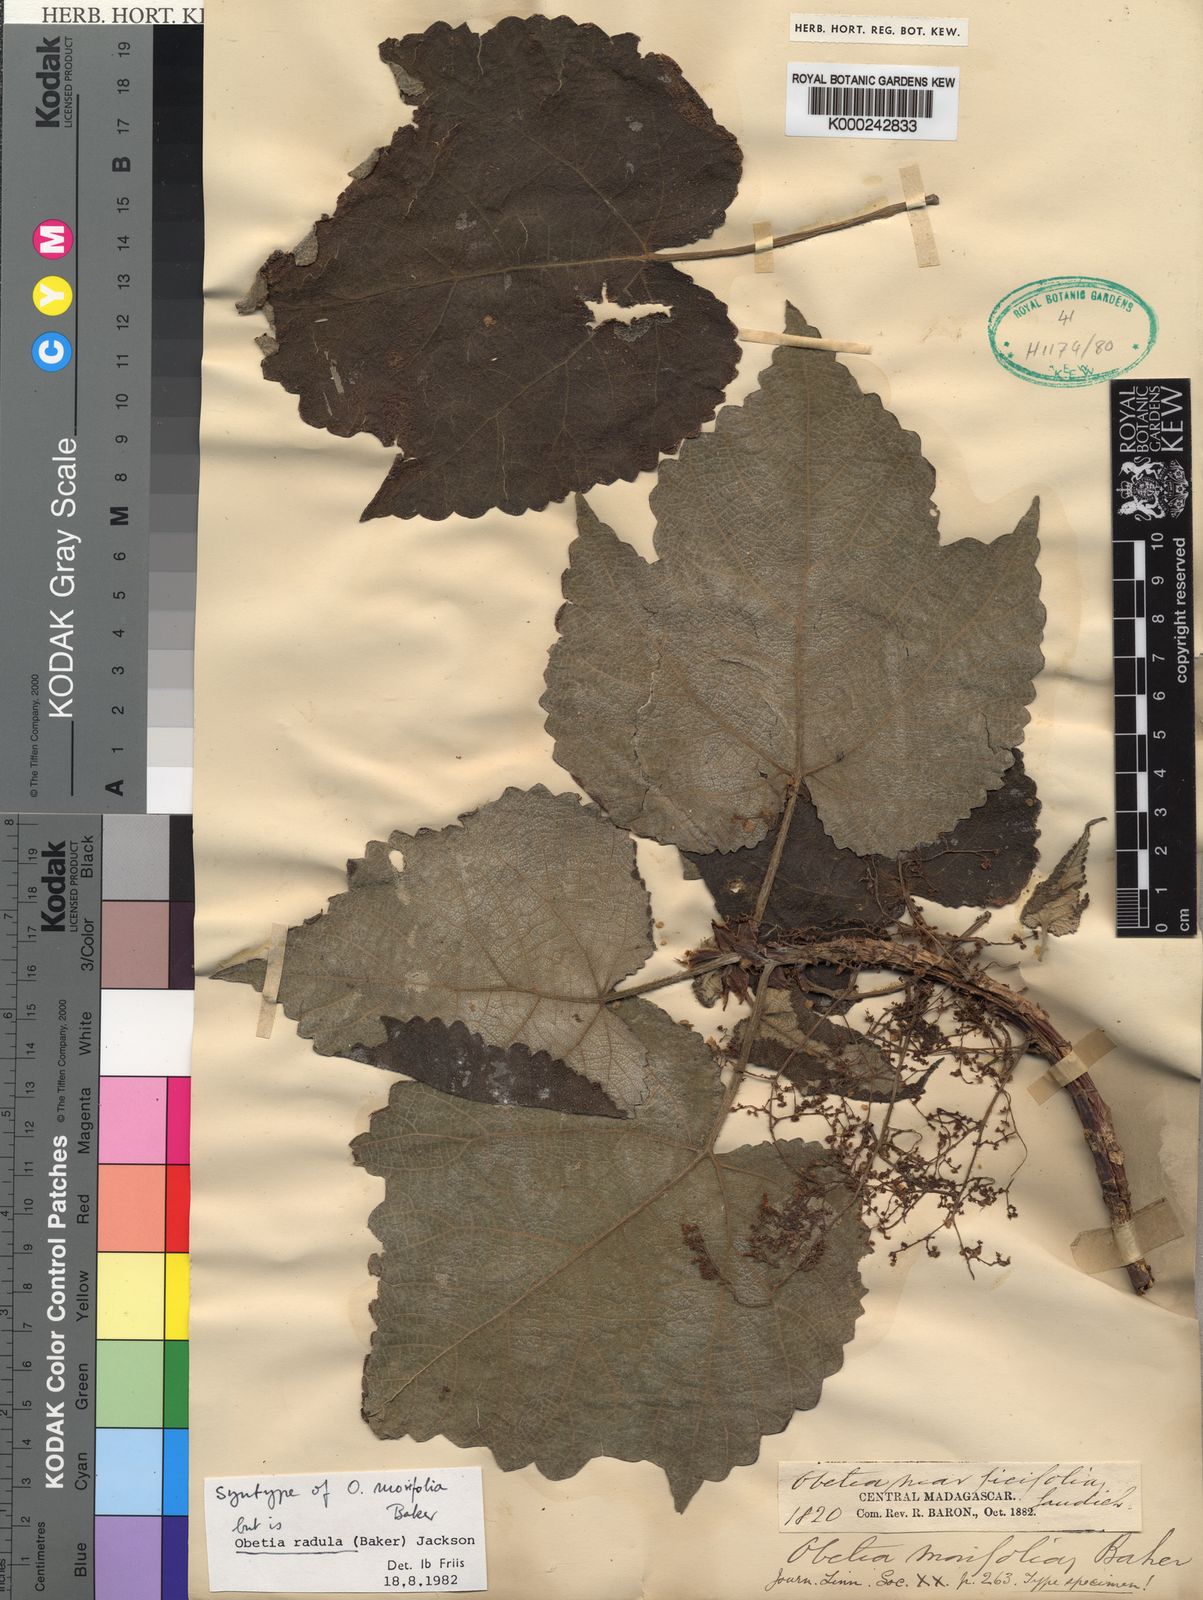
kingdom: Plantae
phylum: Tracheophyta
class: Magnoliopsida
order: Rosales
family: Urticaceae
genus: Obetia
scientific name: Obetia radula
